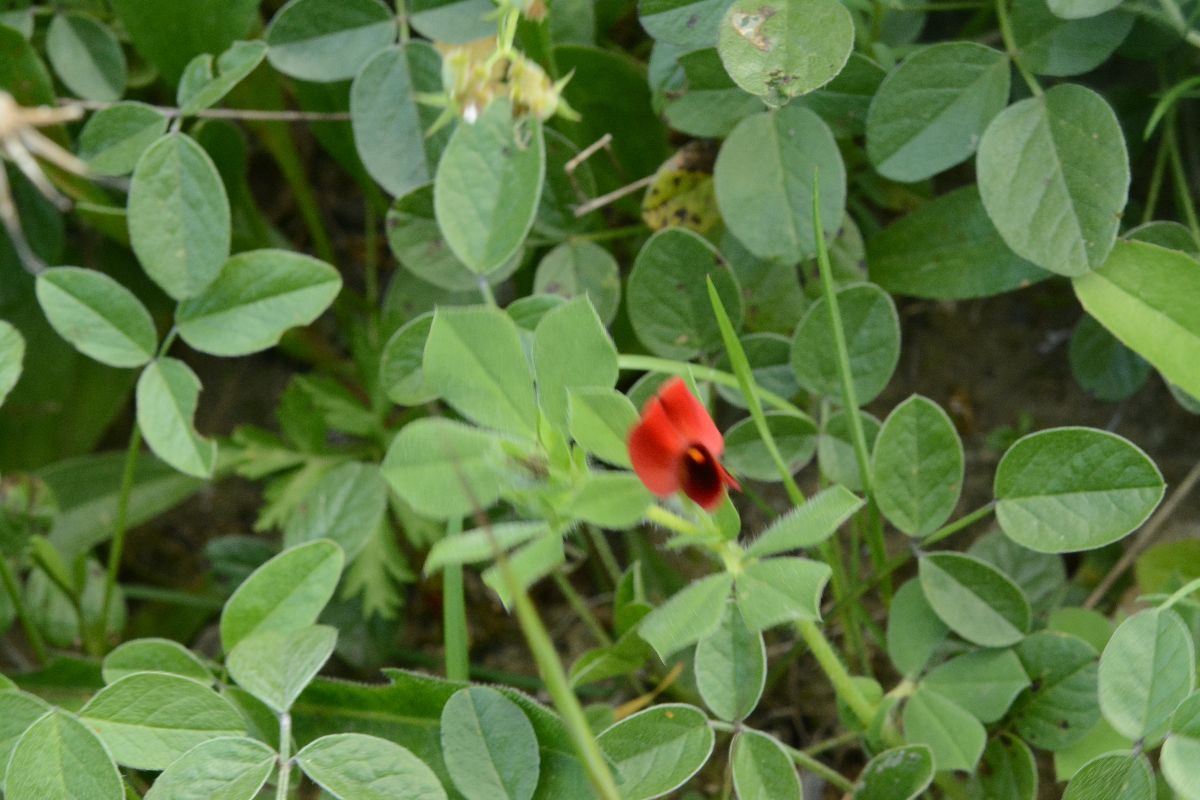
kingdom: Plantae
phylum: Tracheophyta
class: Magnoliopsida
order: Fabales
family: Fabaceae
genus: Lotus
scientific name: Lotus tetragonolobus
